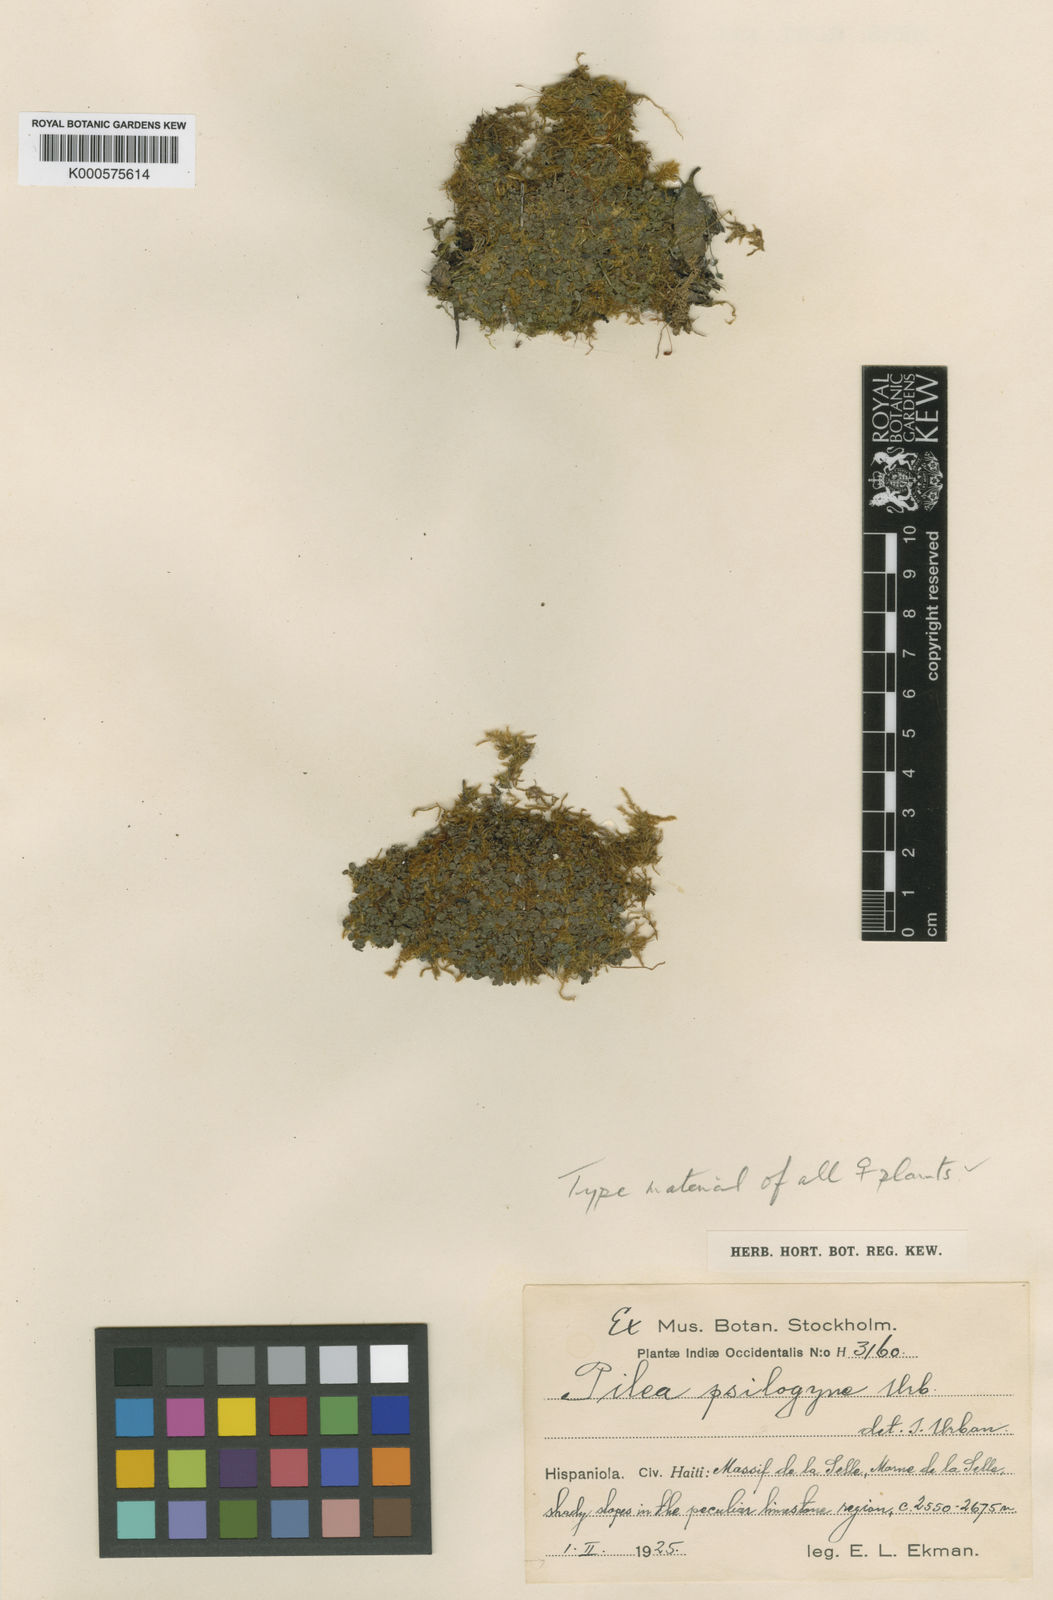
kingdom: Plantae
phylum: Tracheophyta
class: Magnoliopsida
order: Rosales
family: Urticaceae
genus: Pilea
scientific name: Pilea psilogyne
